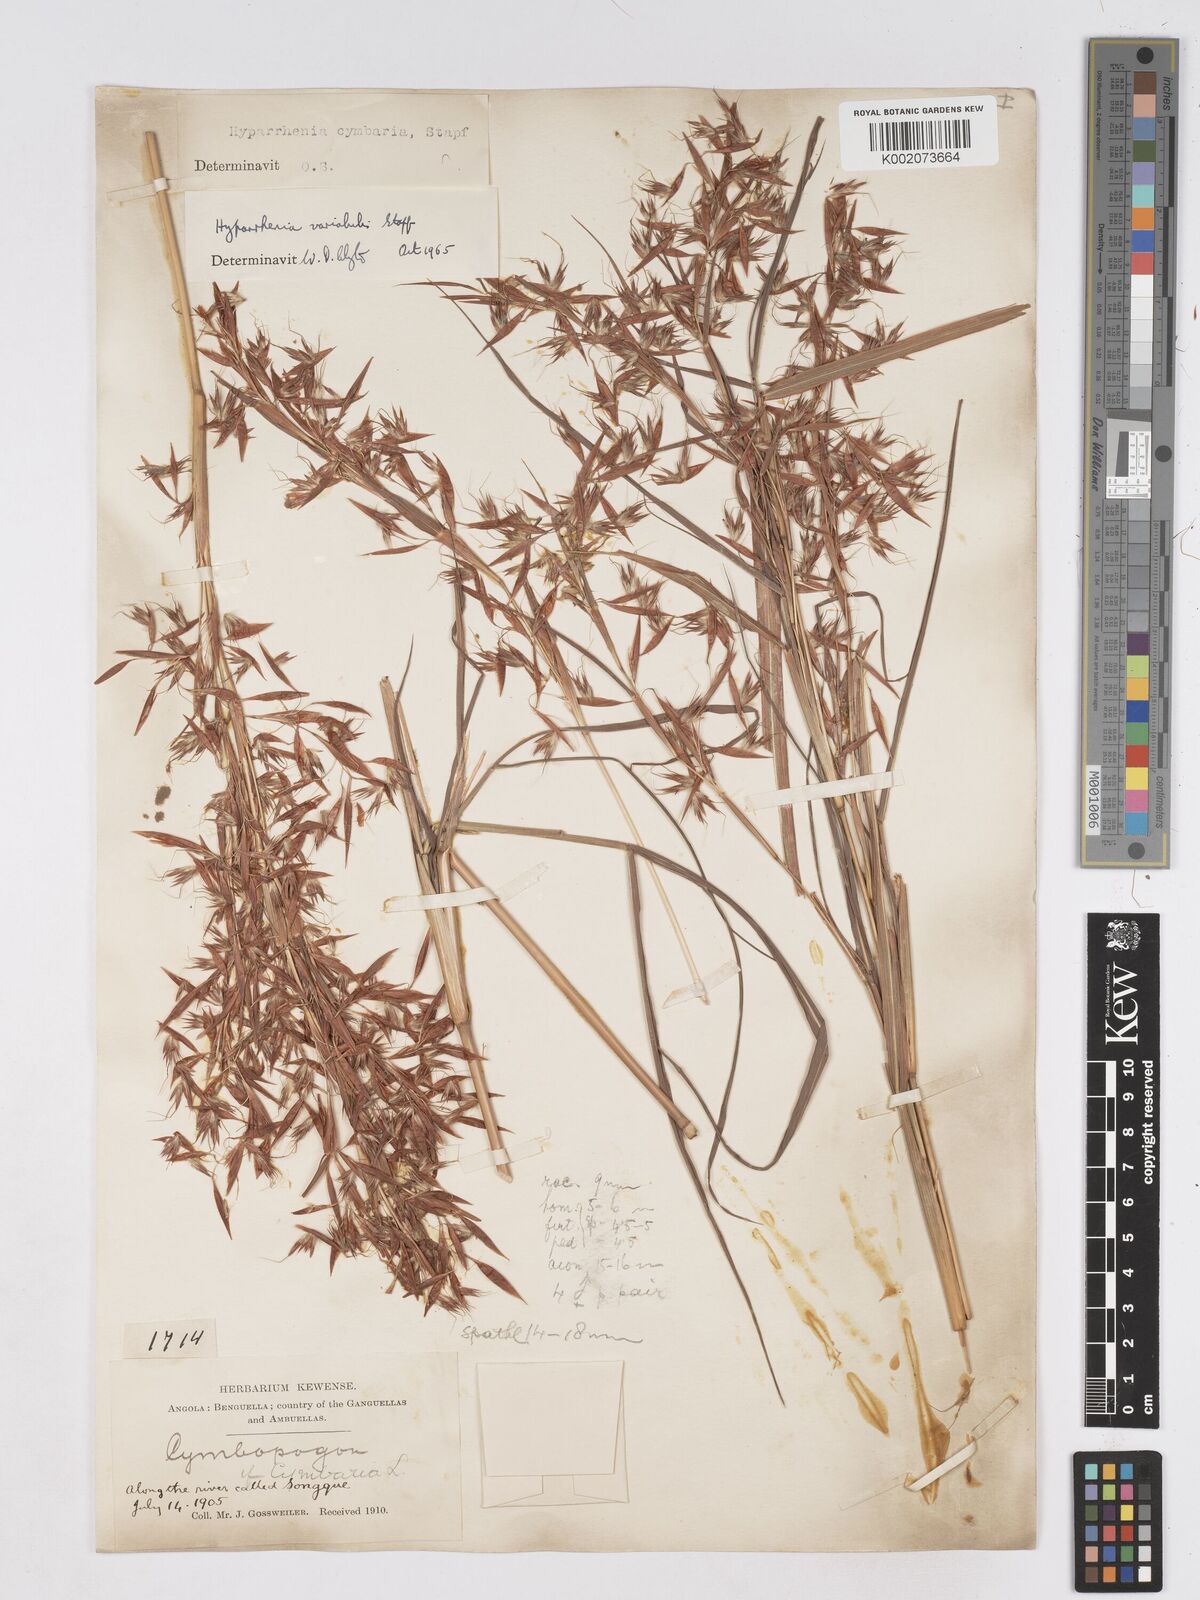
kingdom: Plantae
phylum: Tracheophyta
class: Liliopsida
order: Poales
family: Poaceae
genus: Hyparrhenia
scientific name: Hyparrhenia variabilis
